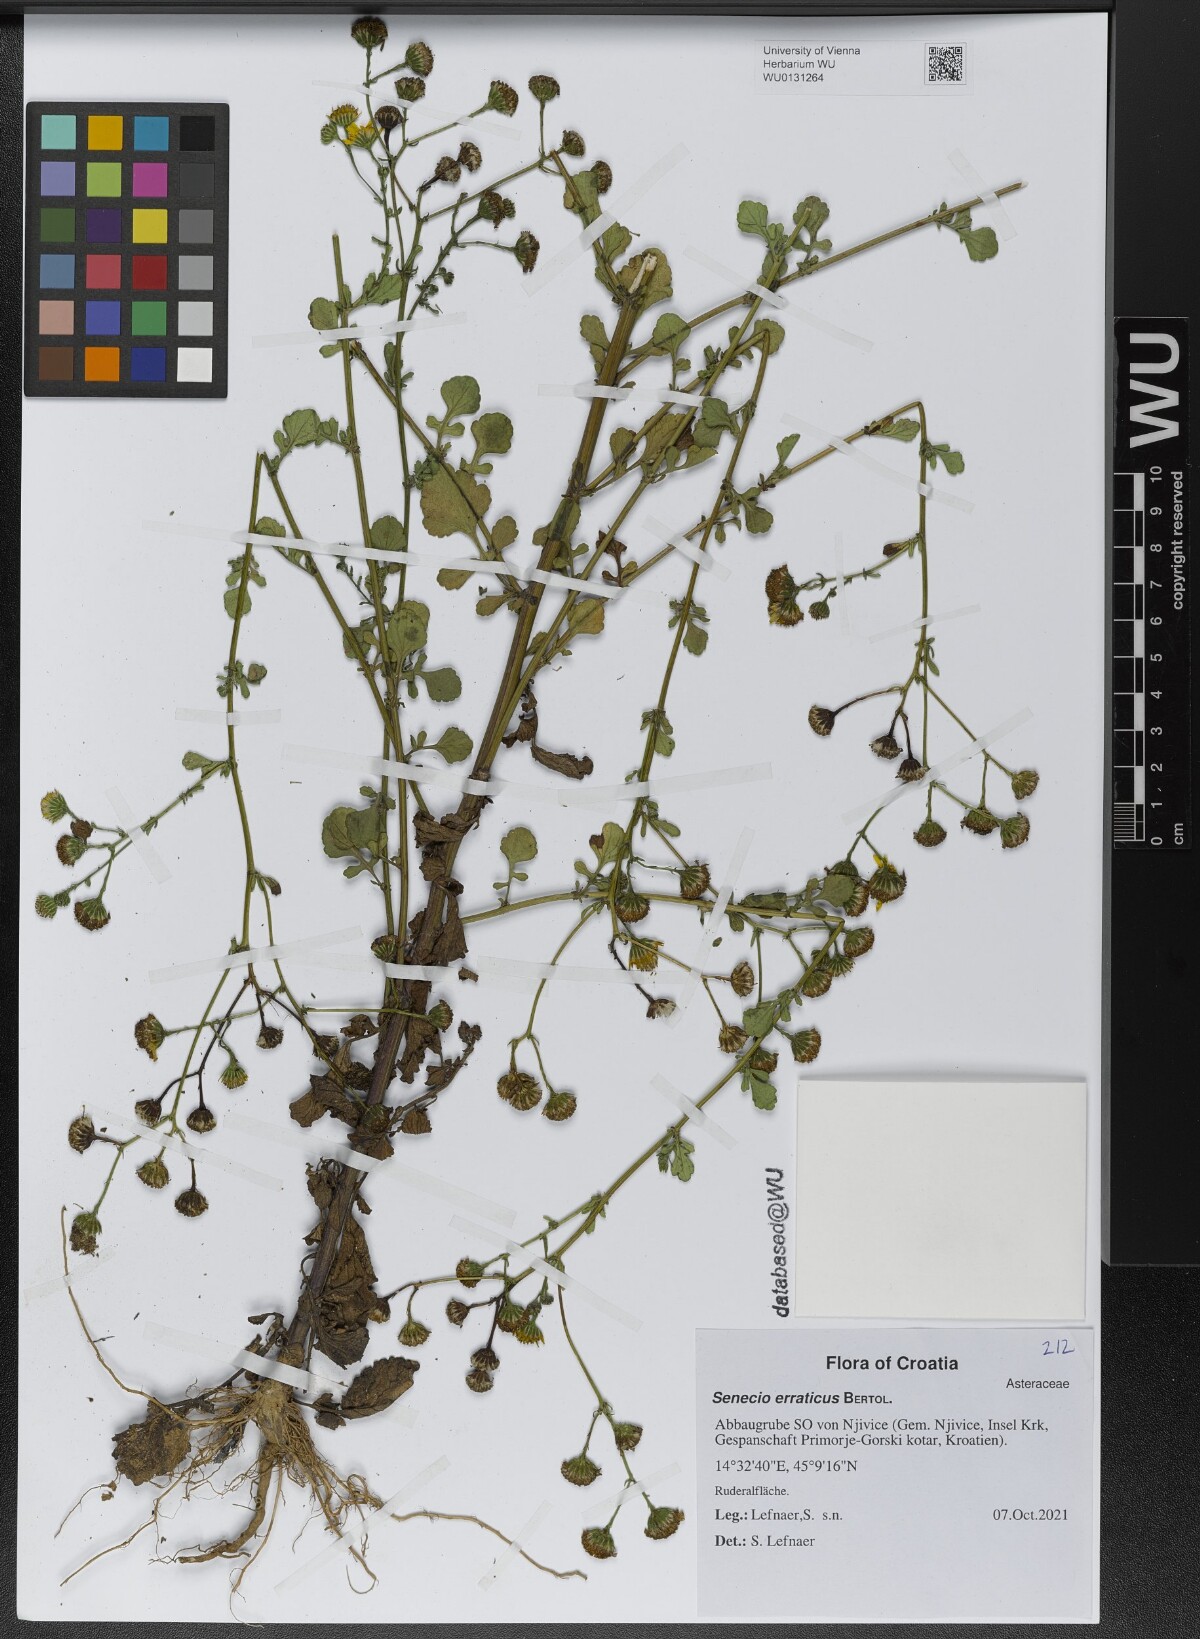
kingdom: Plantae
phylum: Tracheophyta
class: Magnoliopsida
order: Asterales
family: Asteraceae
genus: Jacobaea
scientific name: Jacobaea erratica
